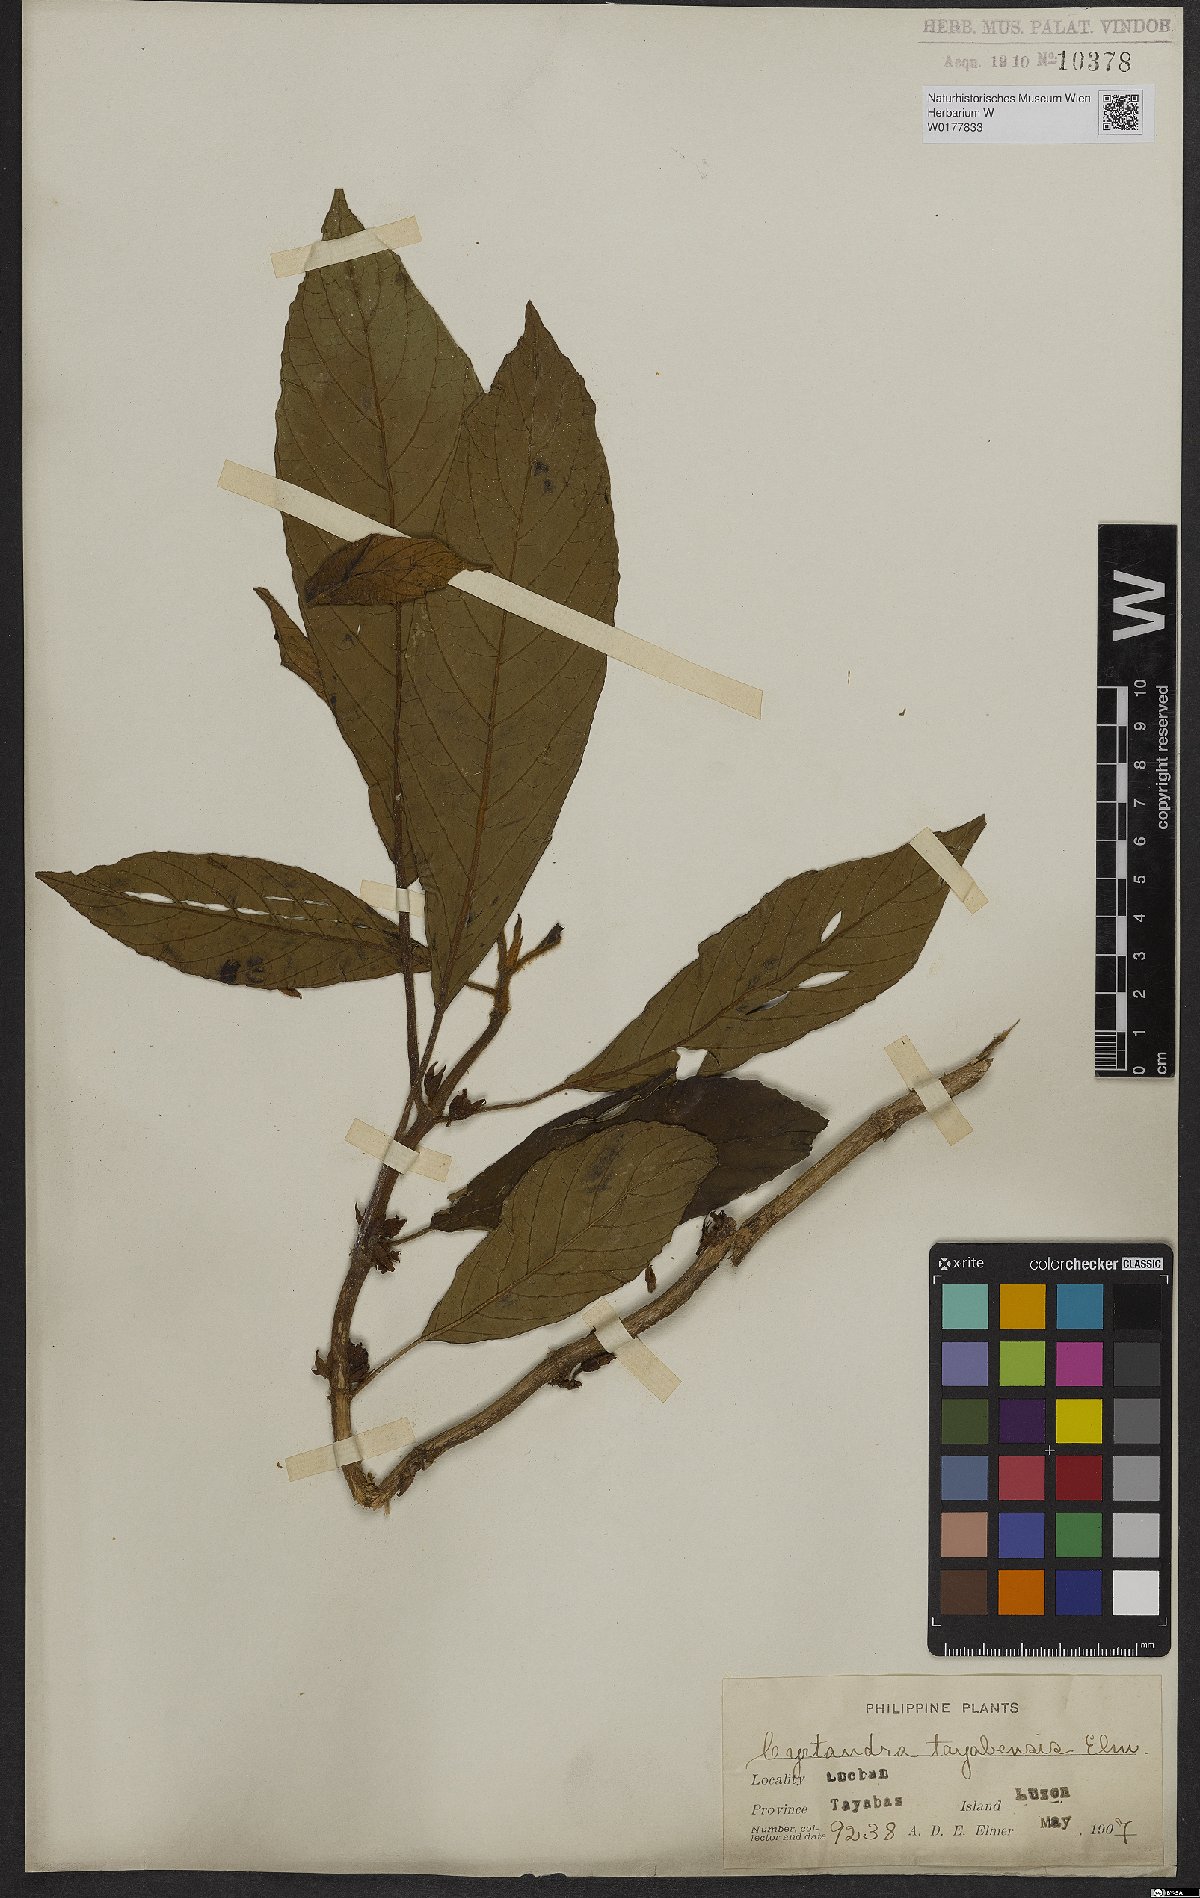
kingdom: Plantae
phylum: Tracheophyta
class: Magnoliopsida
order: Lamiales
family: Gesneriaceae
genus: Cyrtandra
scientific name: Cyrtandra
